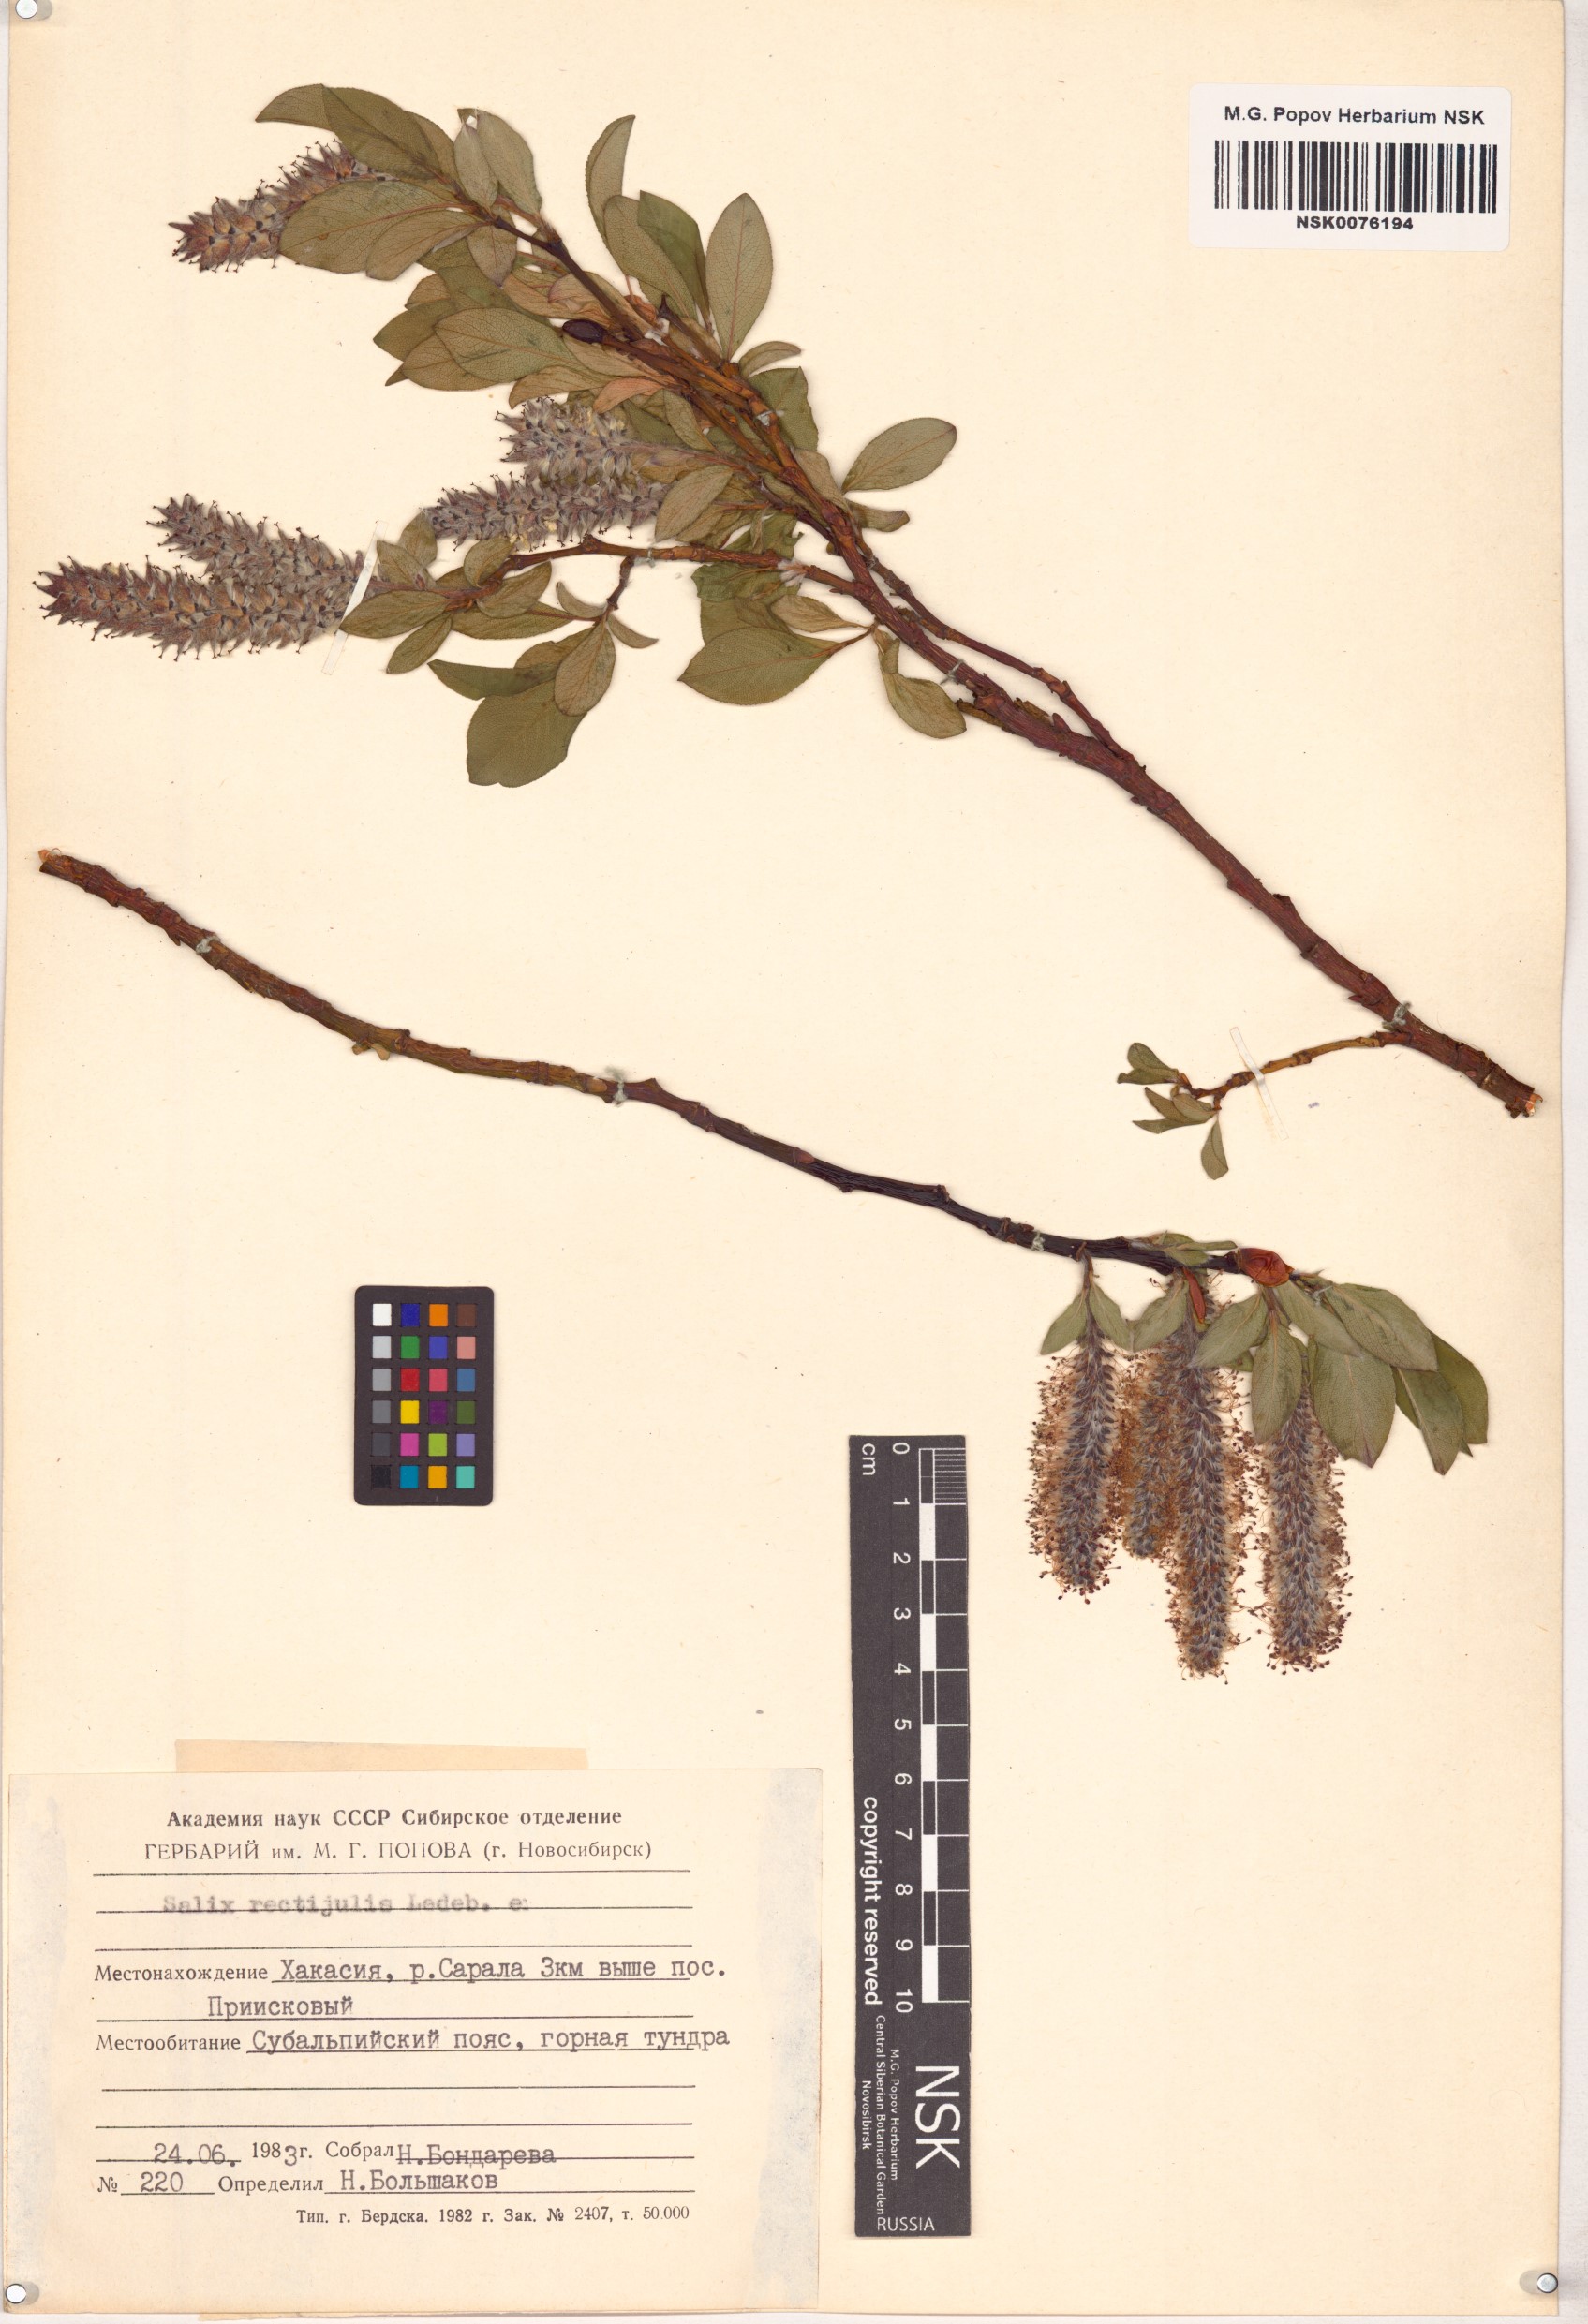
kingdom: Plantae
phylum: Tracheophyta
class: Magnoliopsida
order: Malpighiales
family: Salicaceae
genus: Salix
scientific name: Salix rectijulis
